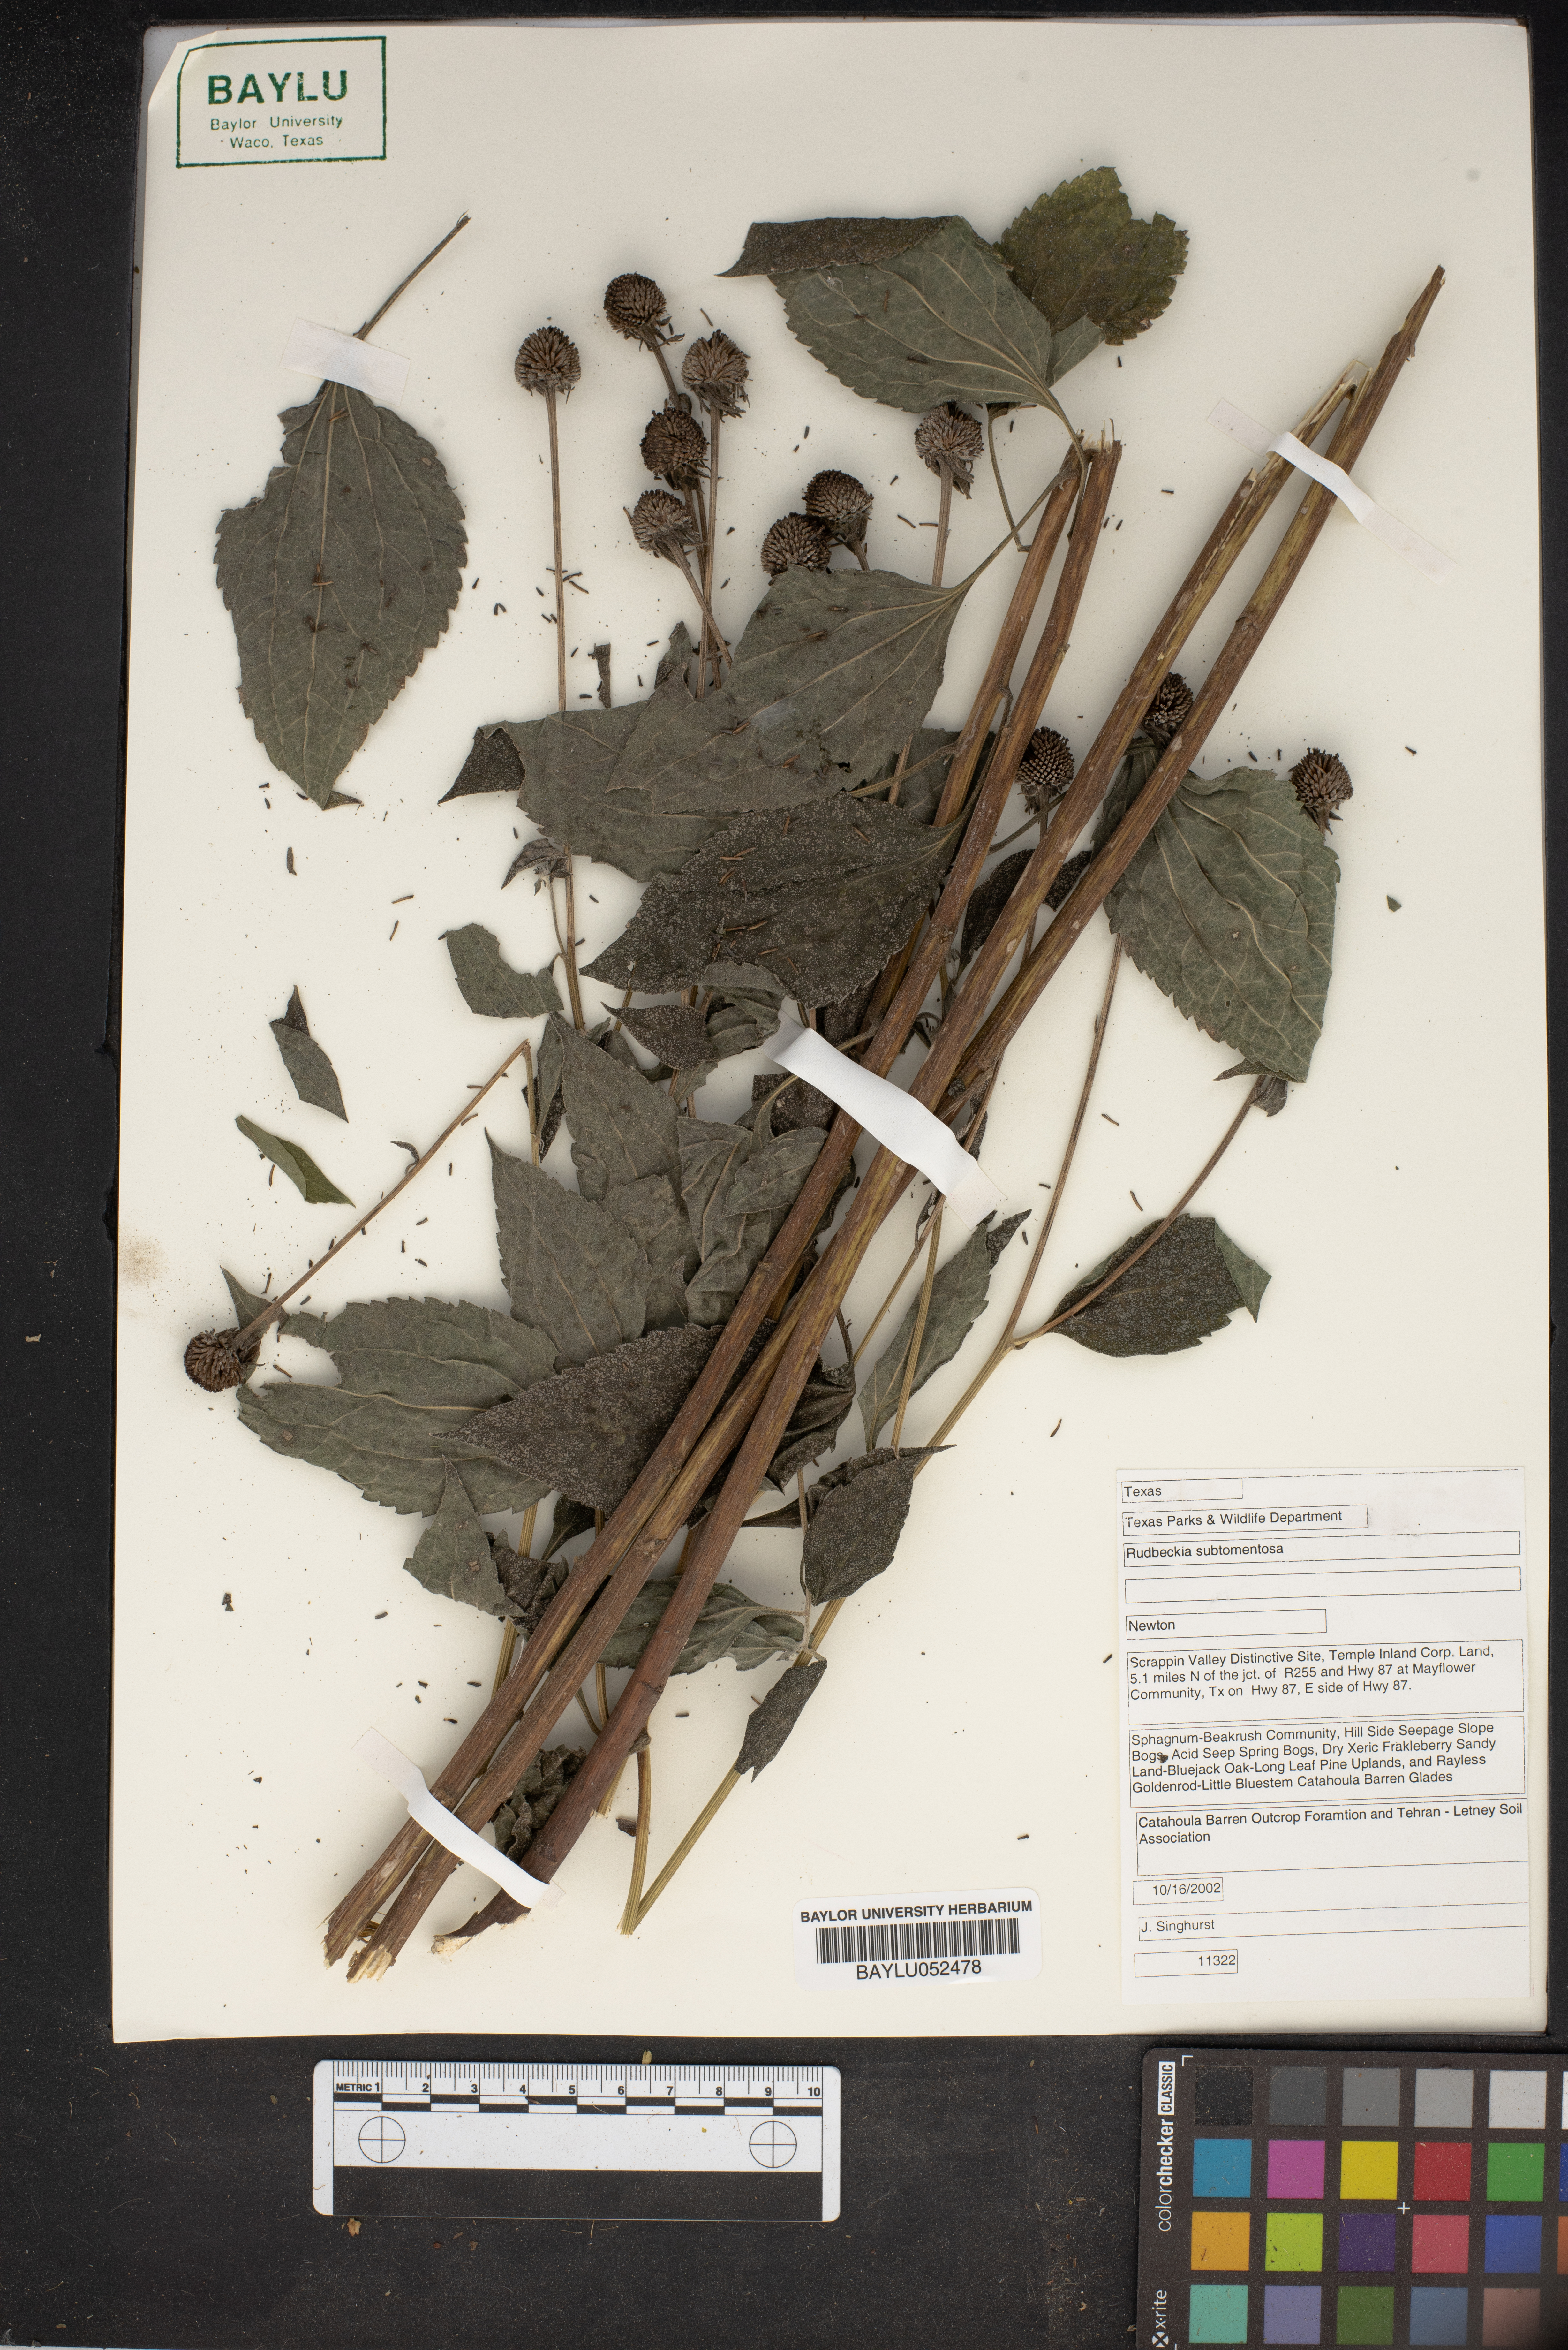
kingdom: Plantae
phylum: Tracheophyta
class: Magnoliopsida
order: Asterales
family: Asteraceae
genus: Rudbeckia
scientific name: Rudbeckia subtomentosa
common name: Sweet coneflower
